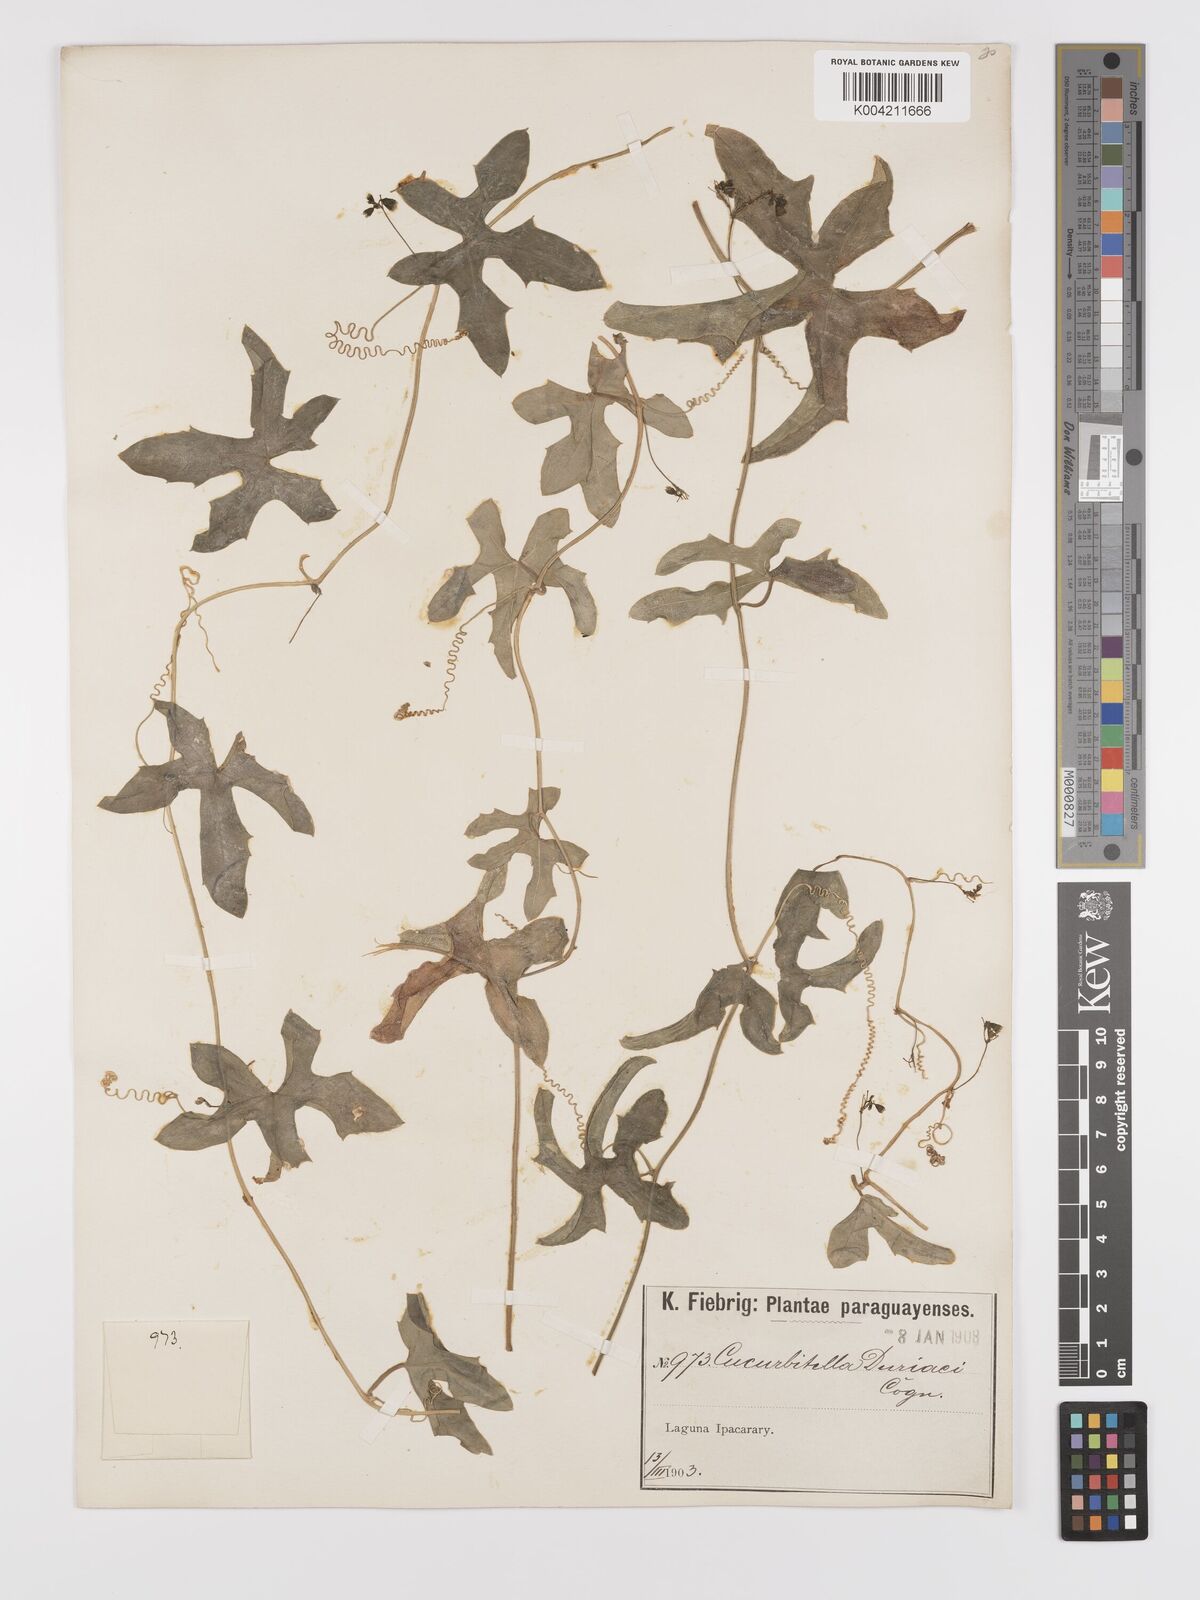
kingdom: Plantae
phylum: Tracheophyta
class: Magnoliopsida
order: Cucurbitales
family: Cucurbitaceae
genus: Melothria
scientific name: Melothria candolleana
